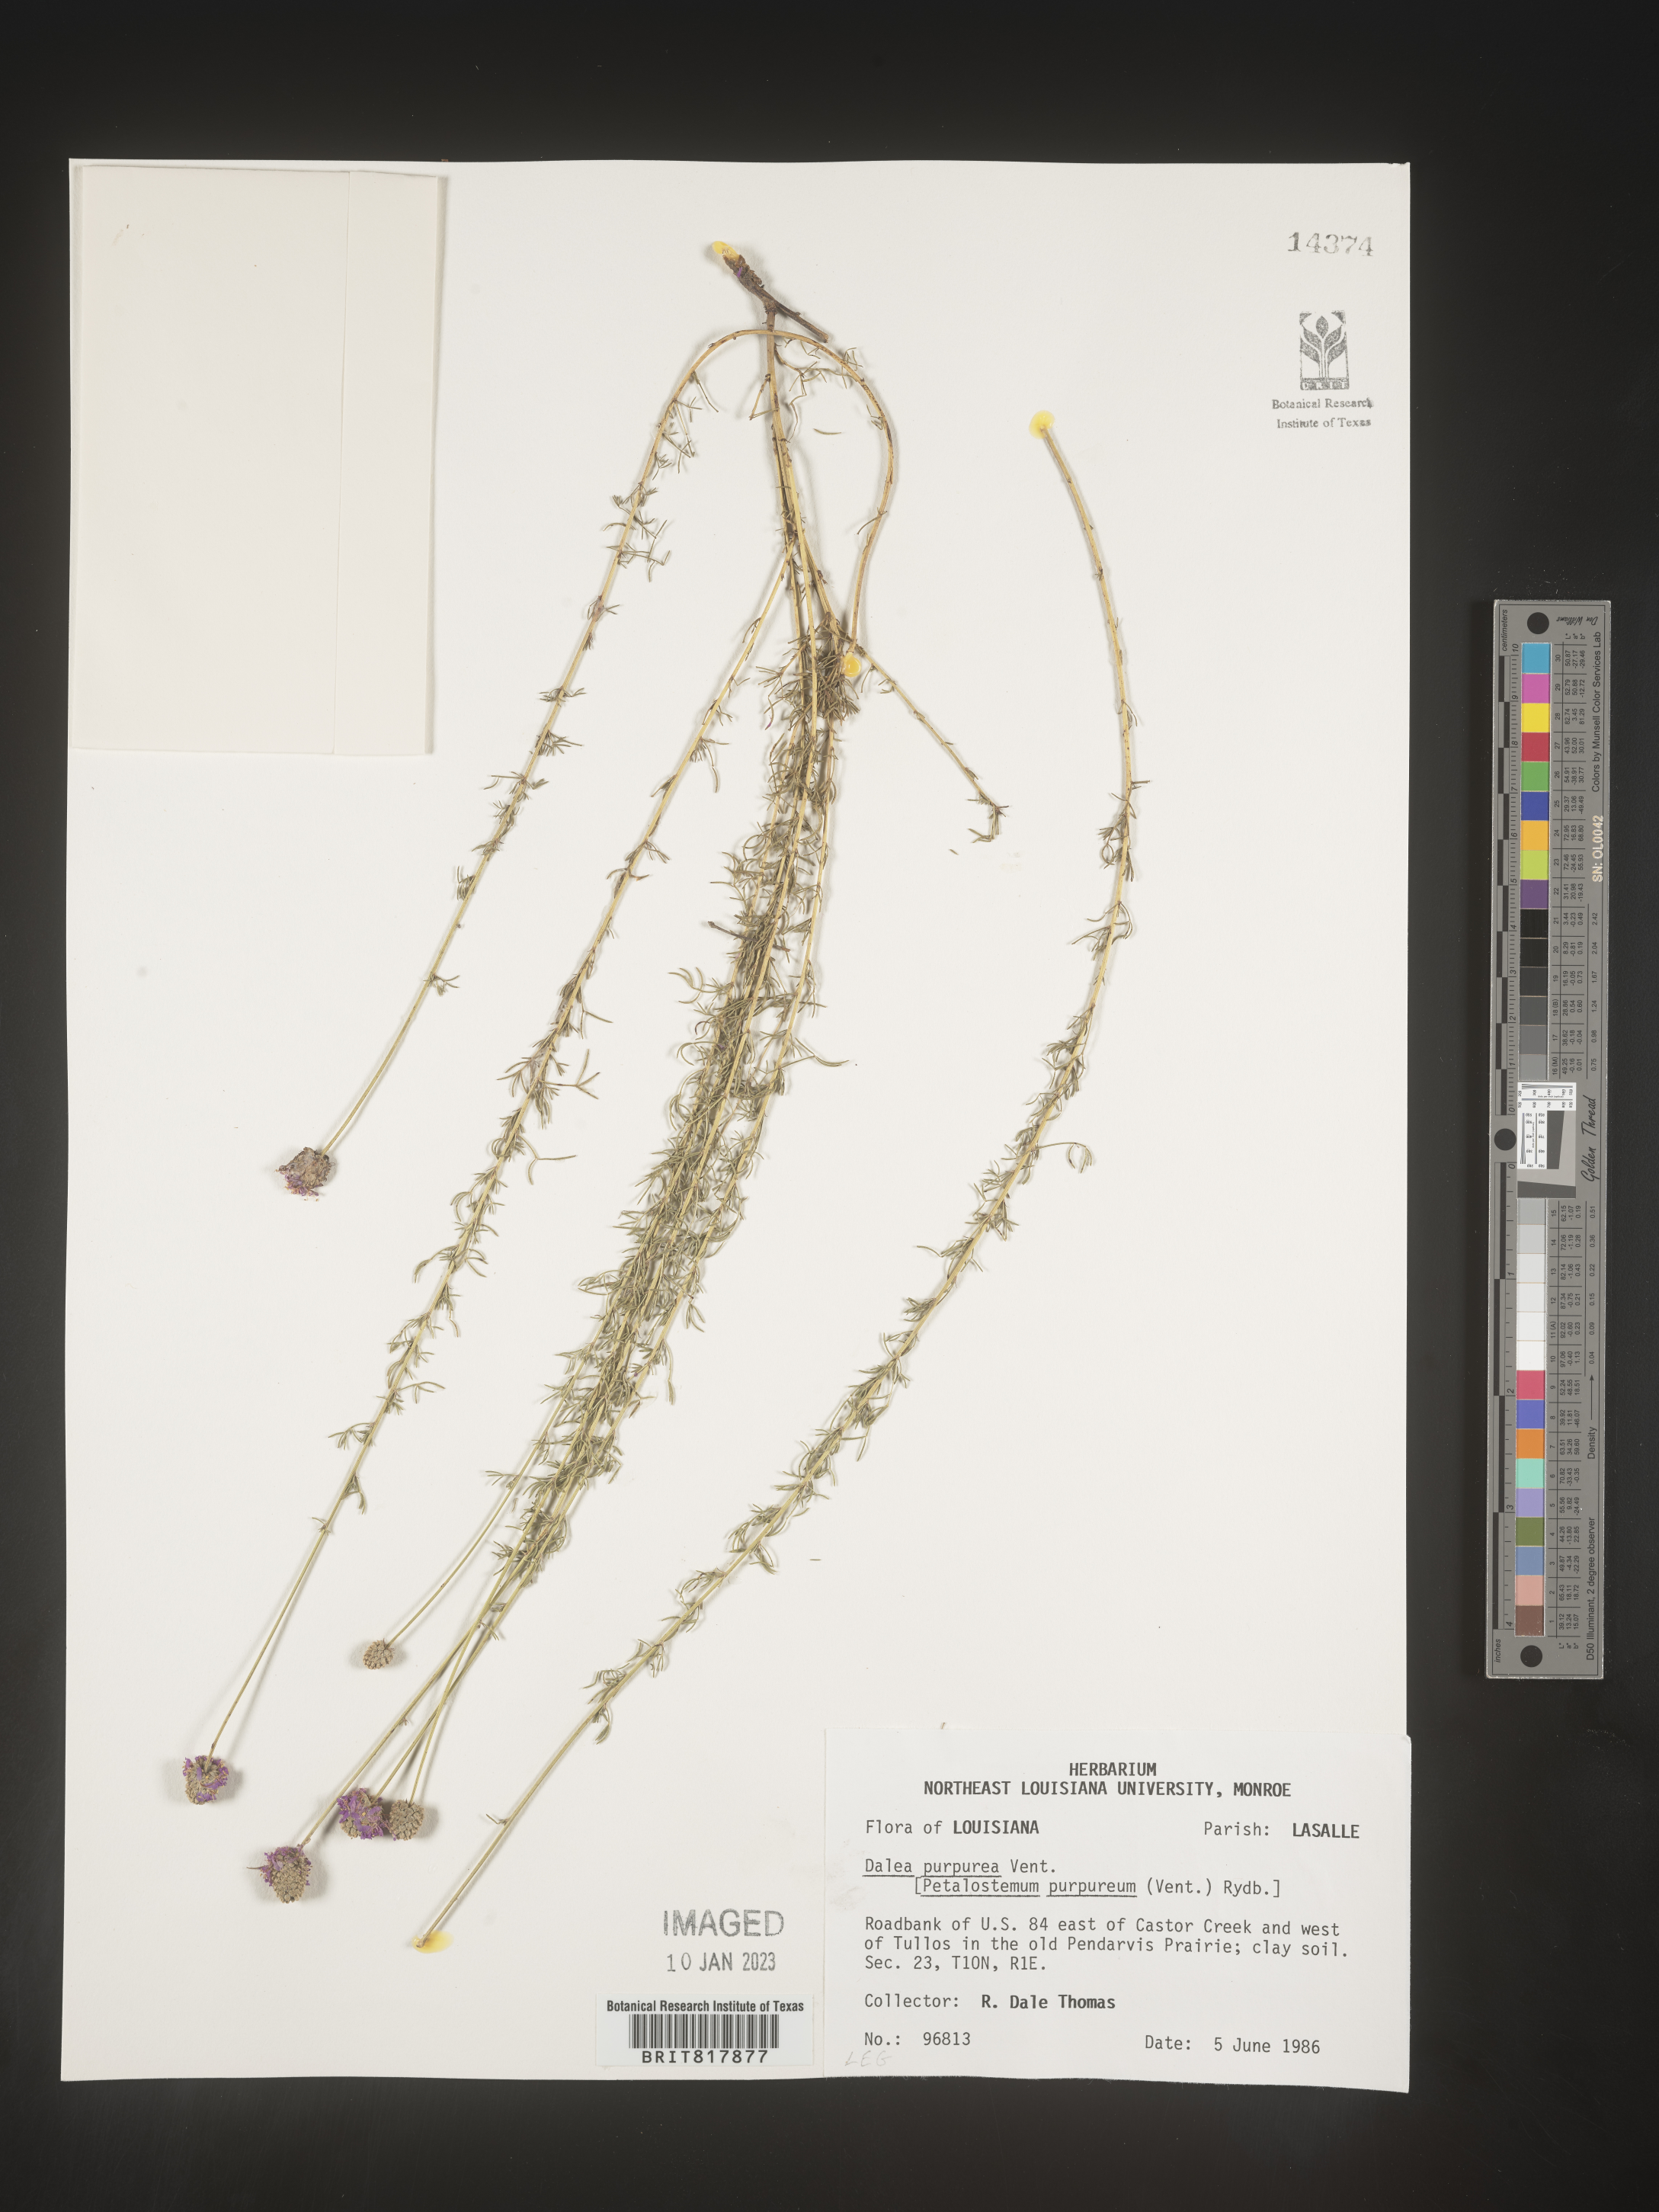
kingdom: Plantae
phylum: Tracheophyta
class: Magnoliopsida
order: Fabales
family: Fabaceae
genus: Dalea
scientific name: Dalea purpurea
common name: Purple prairie-clover
